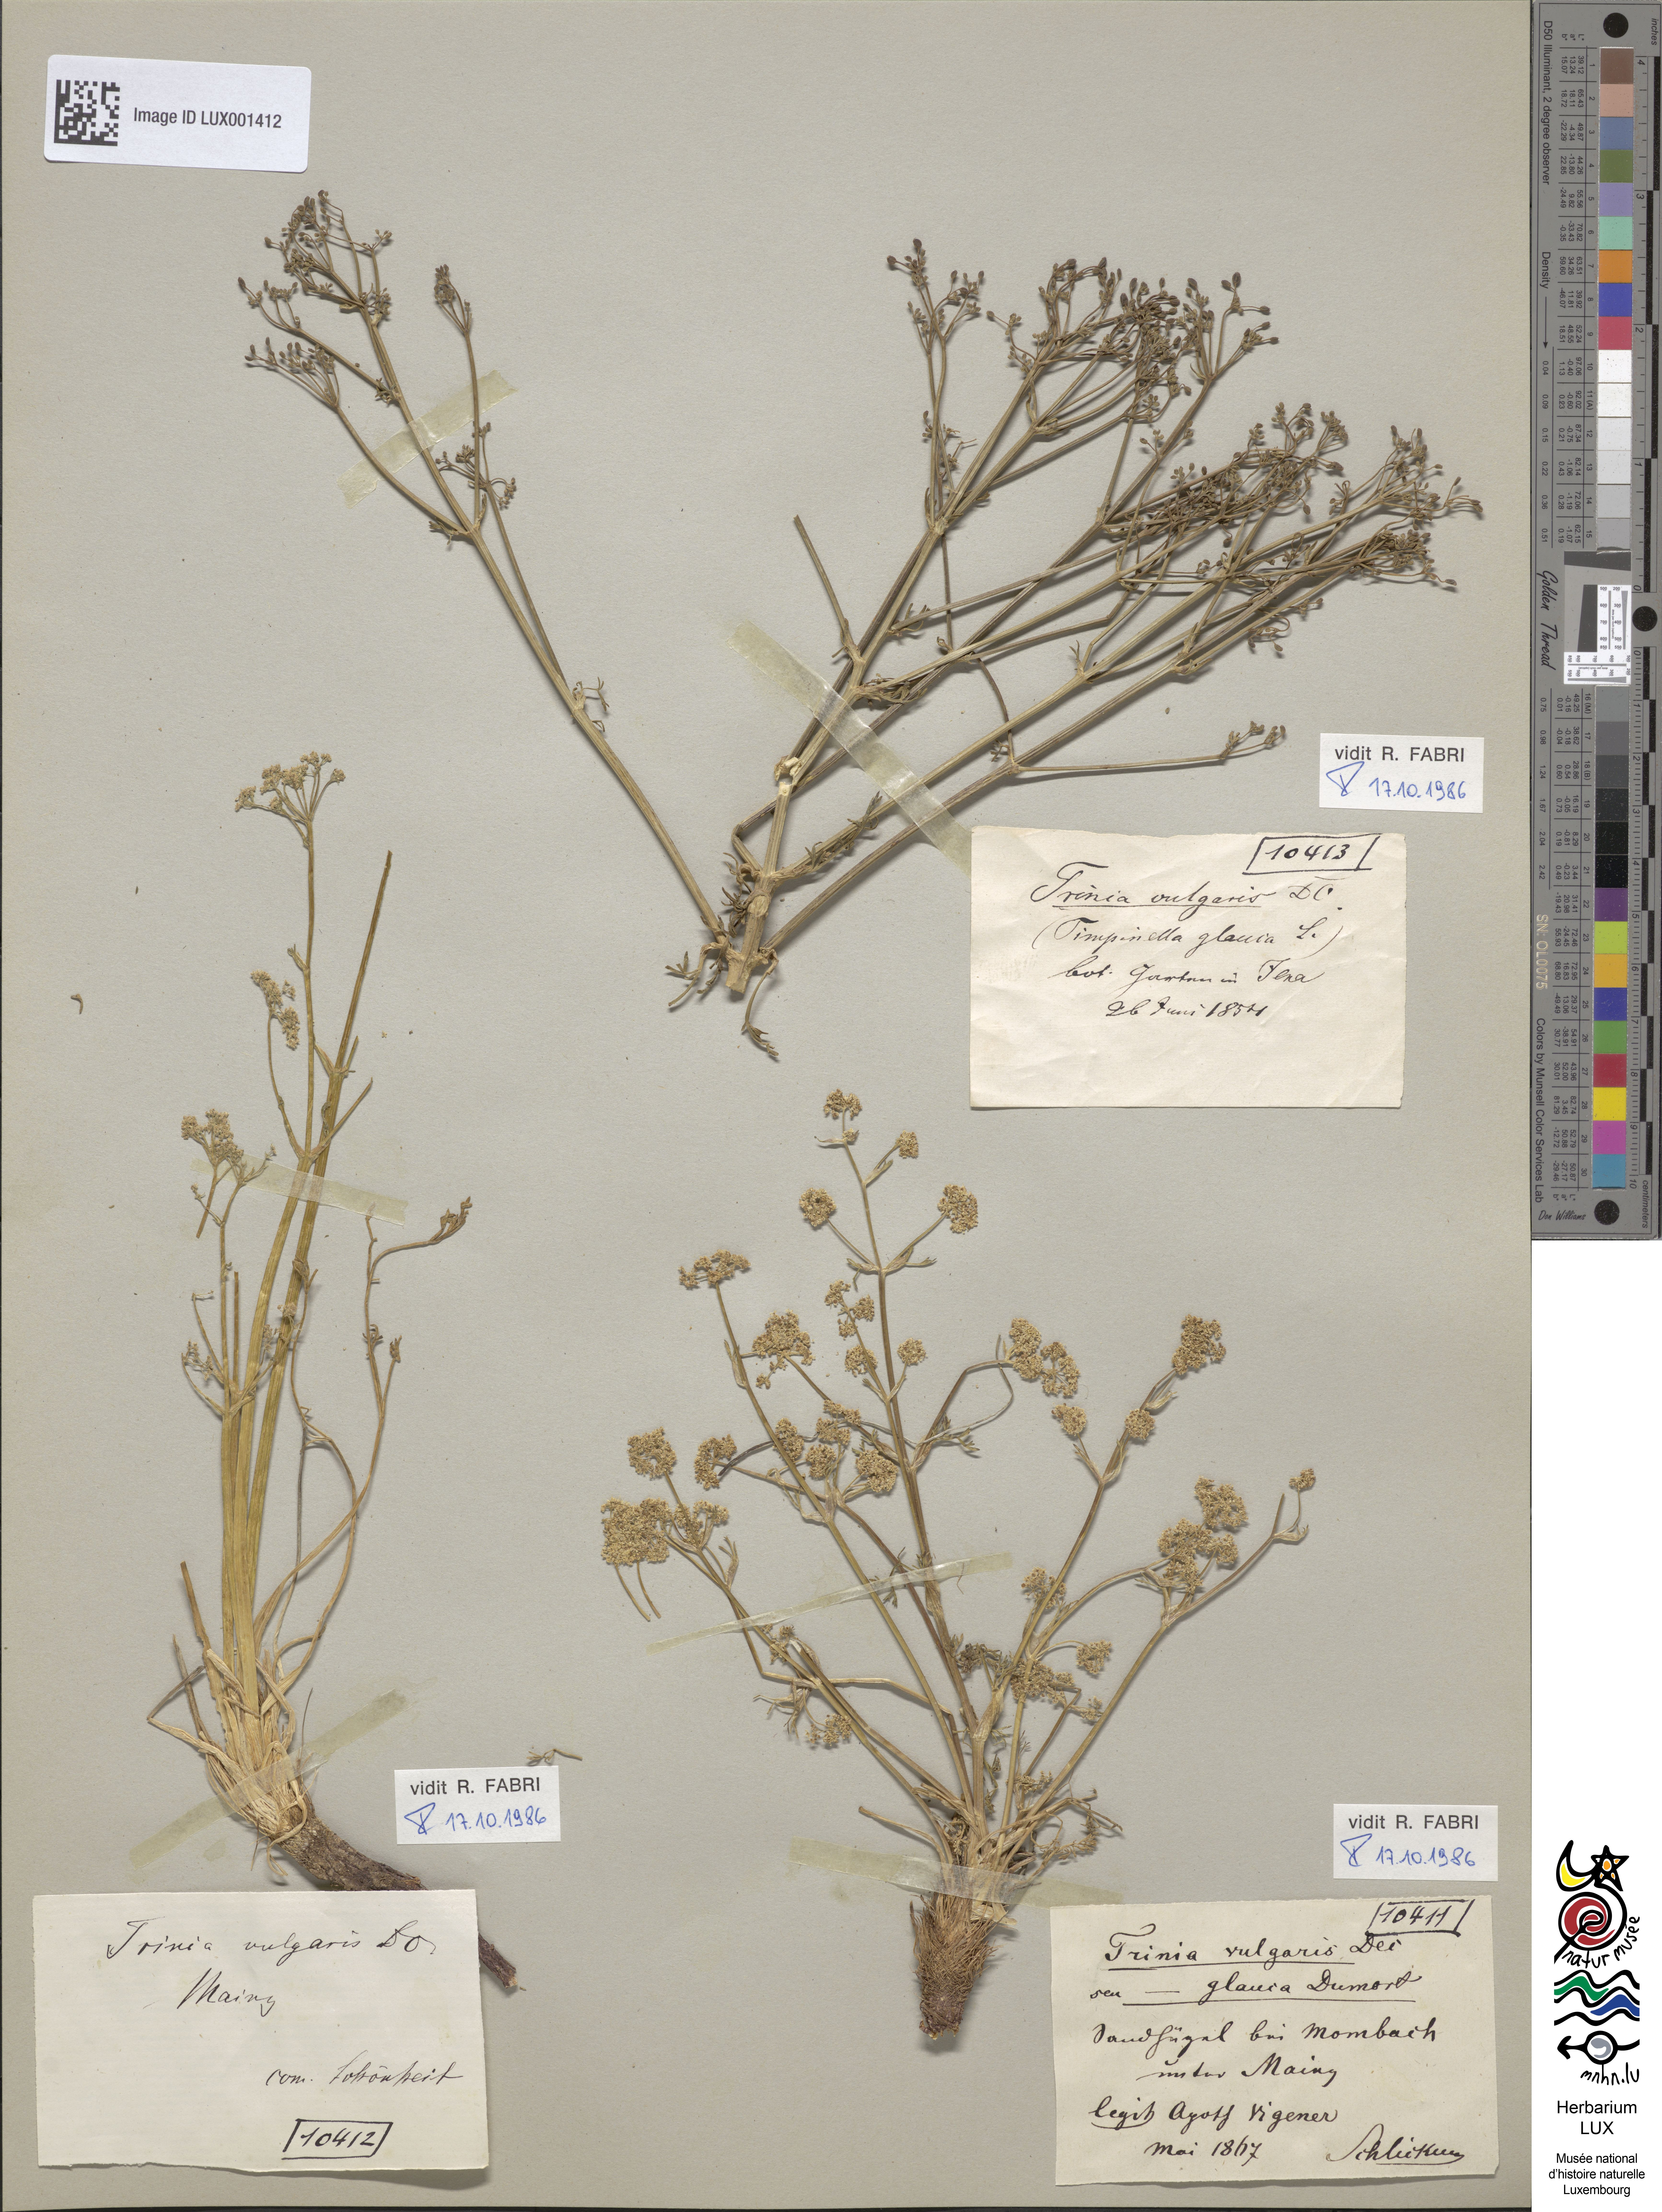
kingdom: Plantae
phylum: Tracheophyta
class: Magnoliopsida
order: Apiales
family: Apiaceae
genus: Trinia
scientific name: Trinia glauca
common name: Honewort
